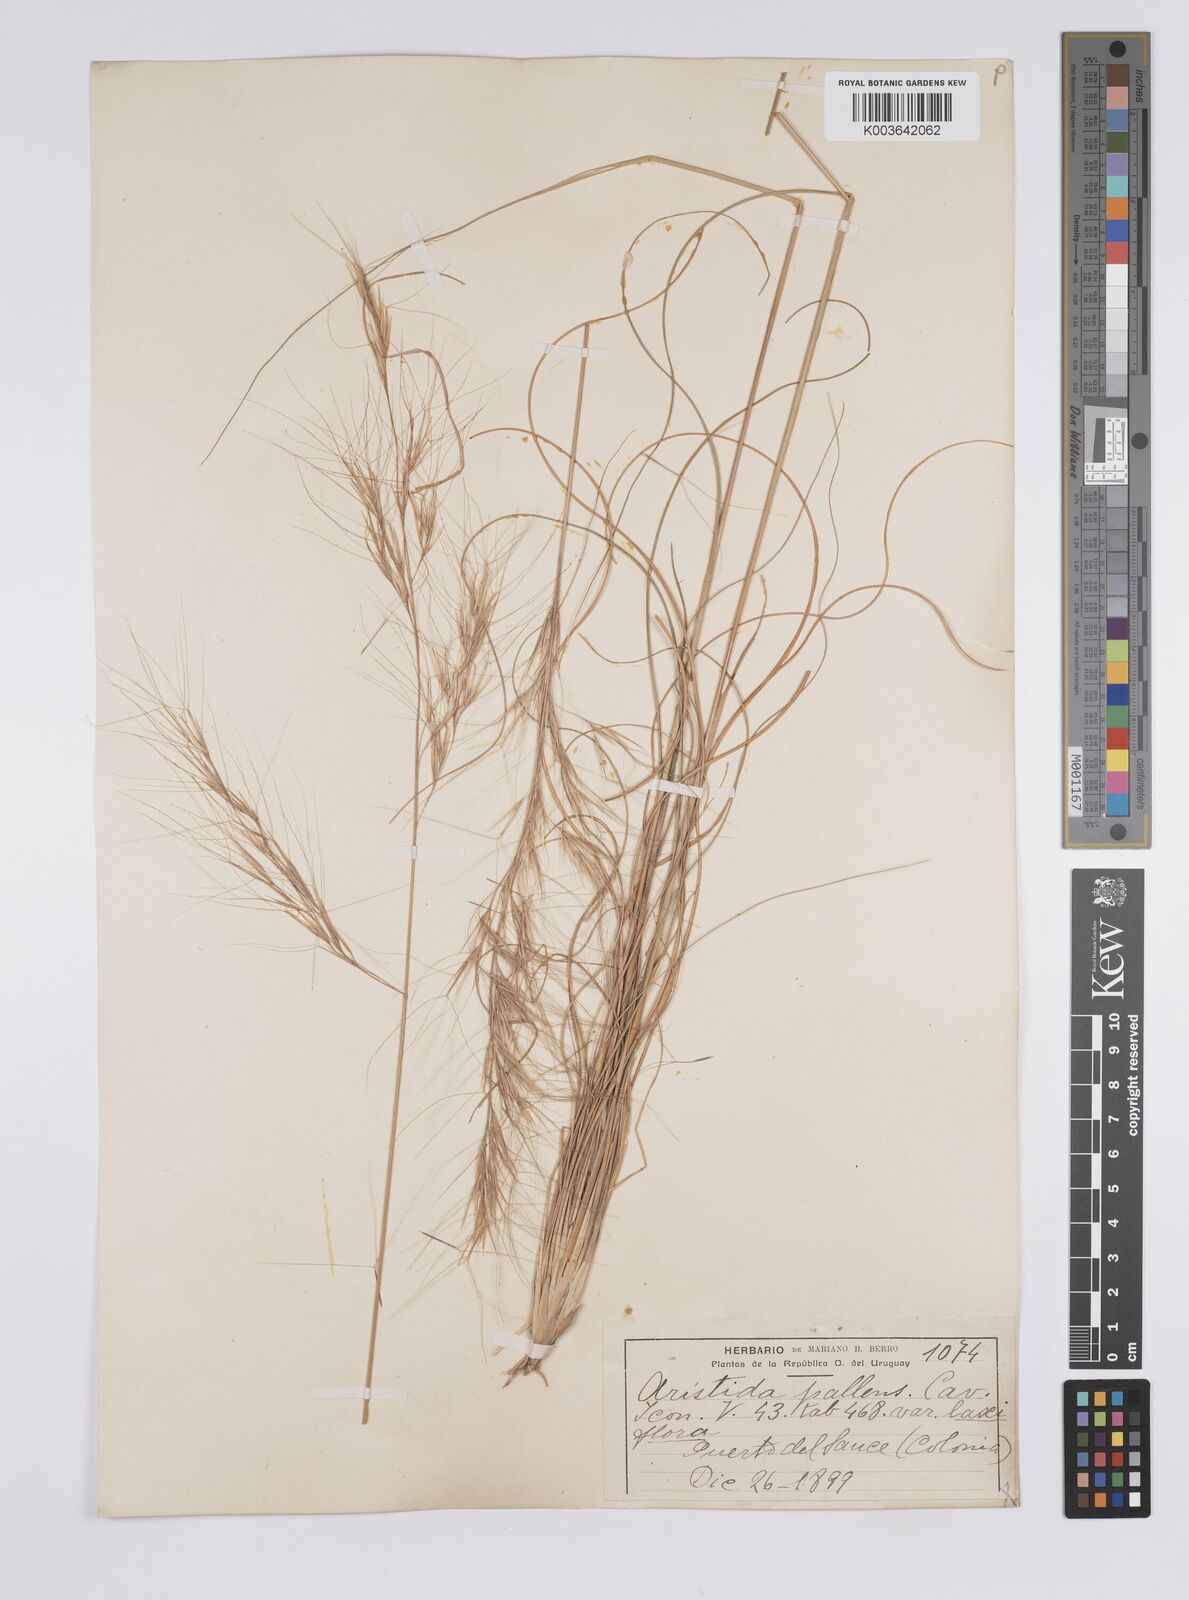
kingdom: Plantae
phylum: Tracheophyta
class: Liliopsida
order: Poales
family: Poaceae
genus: Aristida
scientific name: Aristida pallens
